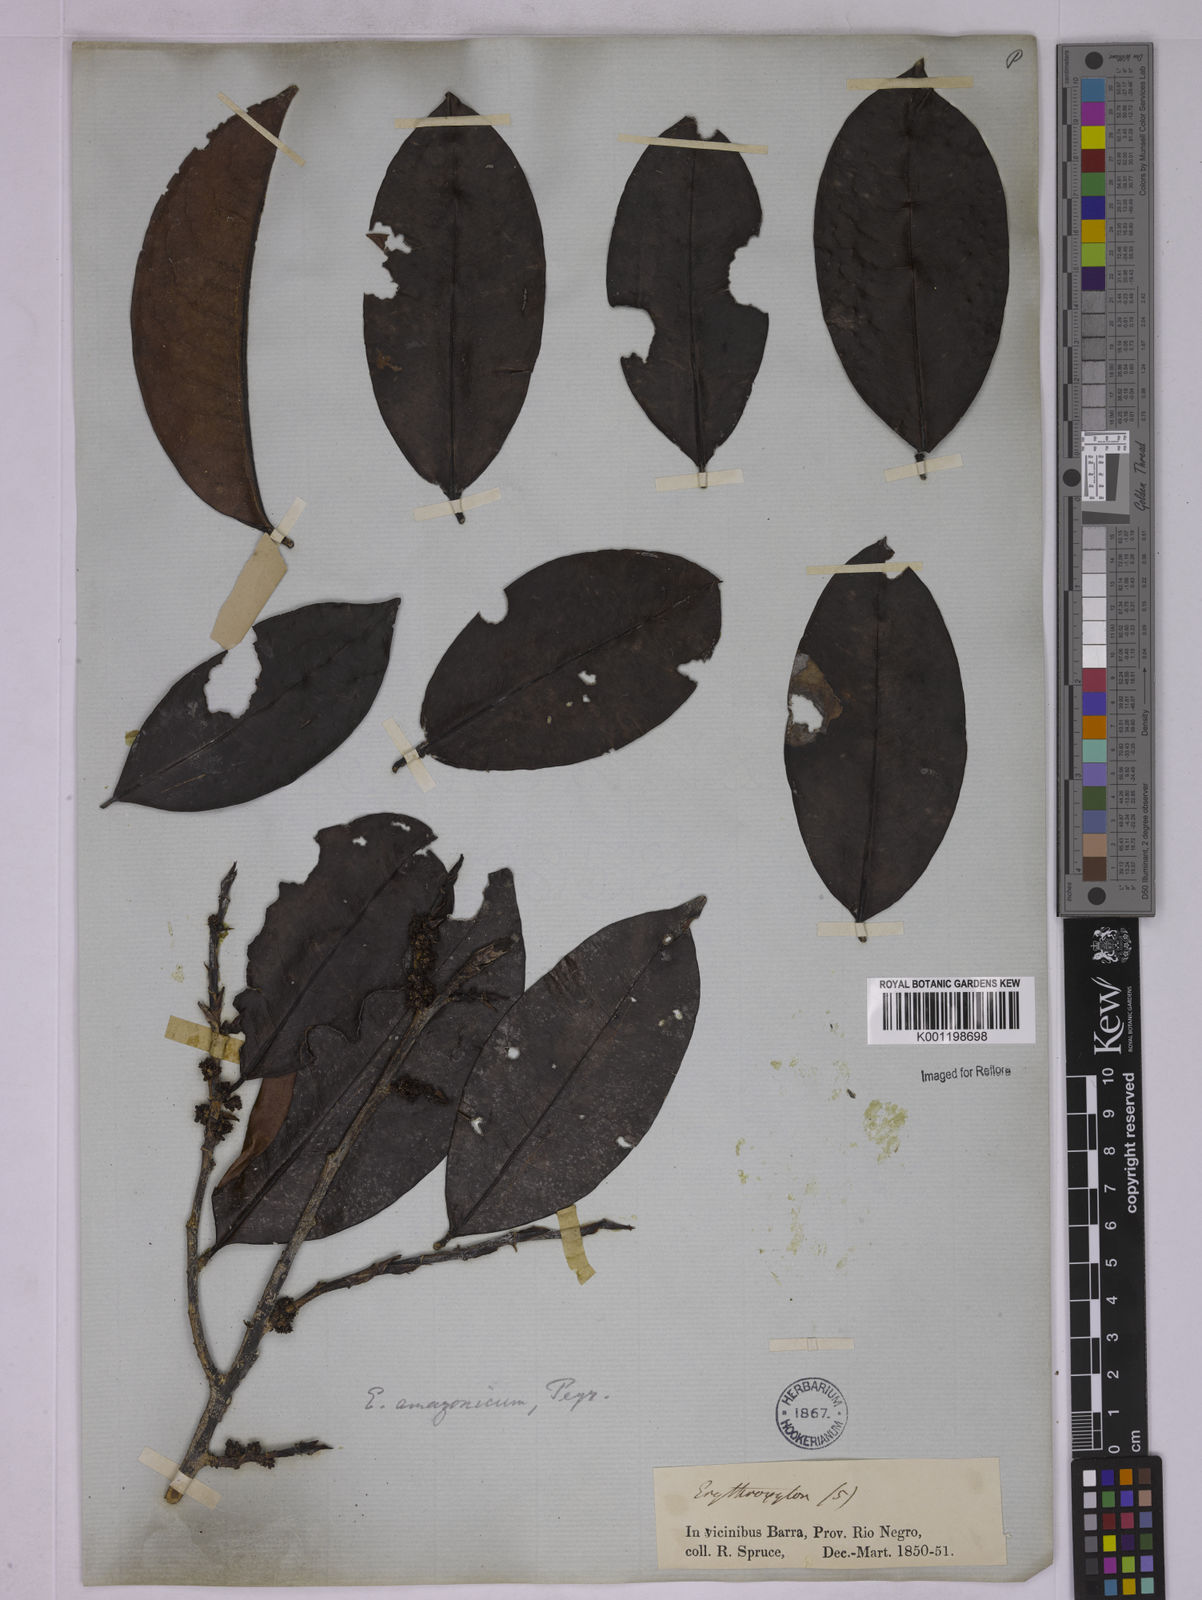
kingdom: Plantae
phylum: Tracheophyta
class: Magnoliopsida
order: Malpighiales
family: Erythroxylaceae
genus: Erythroxylum
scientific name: Erythroxylum amazonicum
